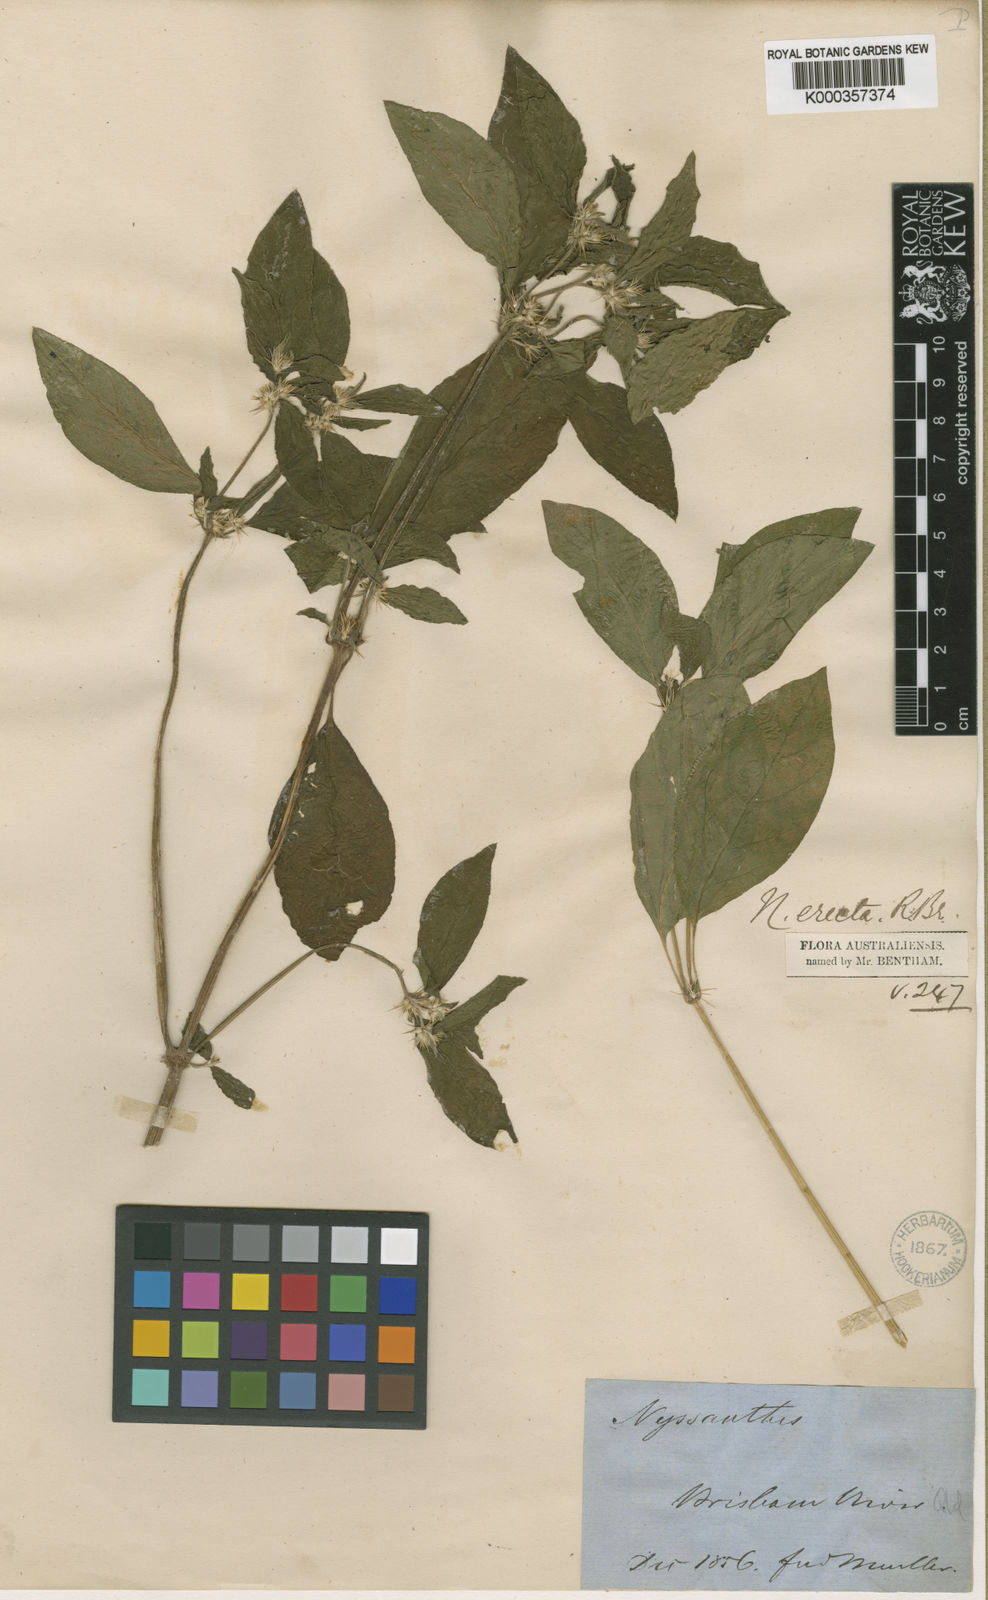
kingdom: Plantae
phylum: Tracheophyta
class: Magnoliopsida
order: Caryophyllales
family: Amaranthaceae
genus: Nyssanthes
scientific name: Nyssanthes erecta
